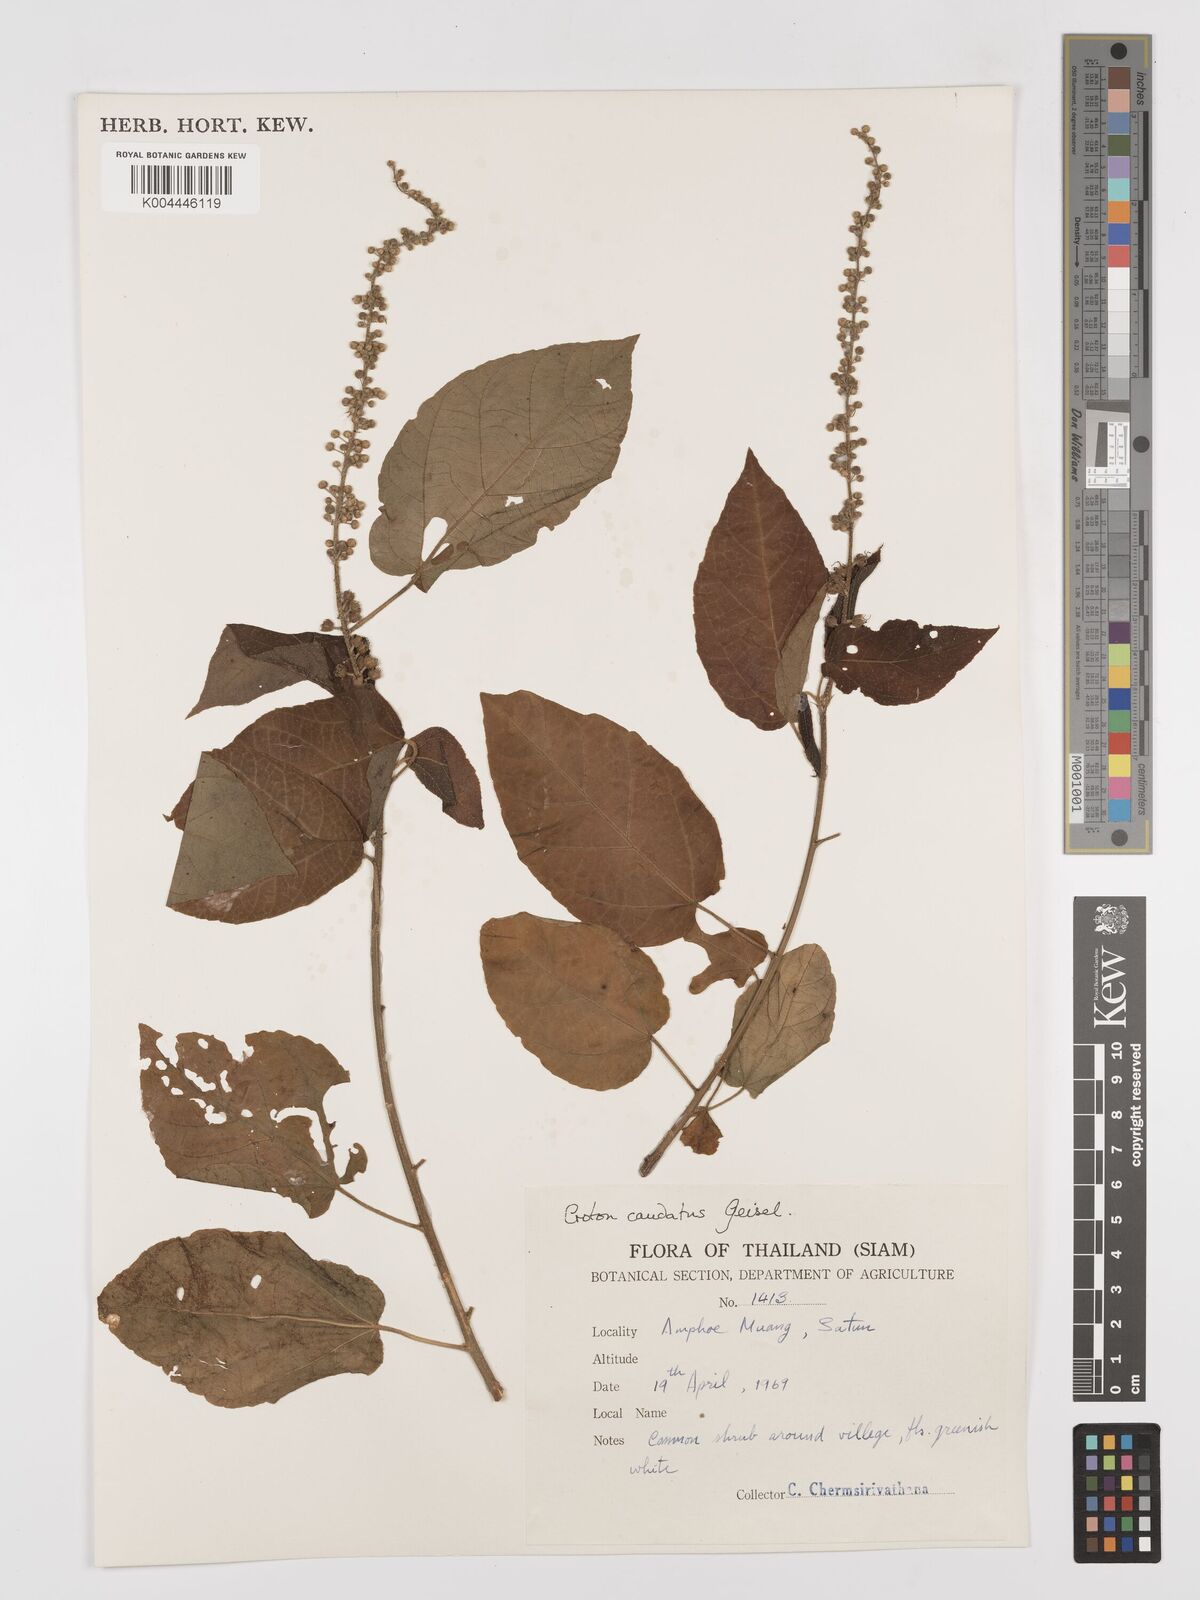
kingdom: Plantae
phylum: Tracheophyta
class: Magnoliopsida
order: Malpighiales
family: Euphorbiaceae
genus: Croton
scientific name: Croton caudatus
